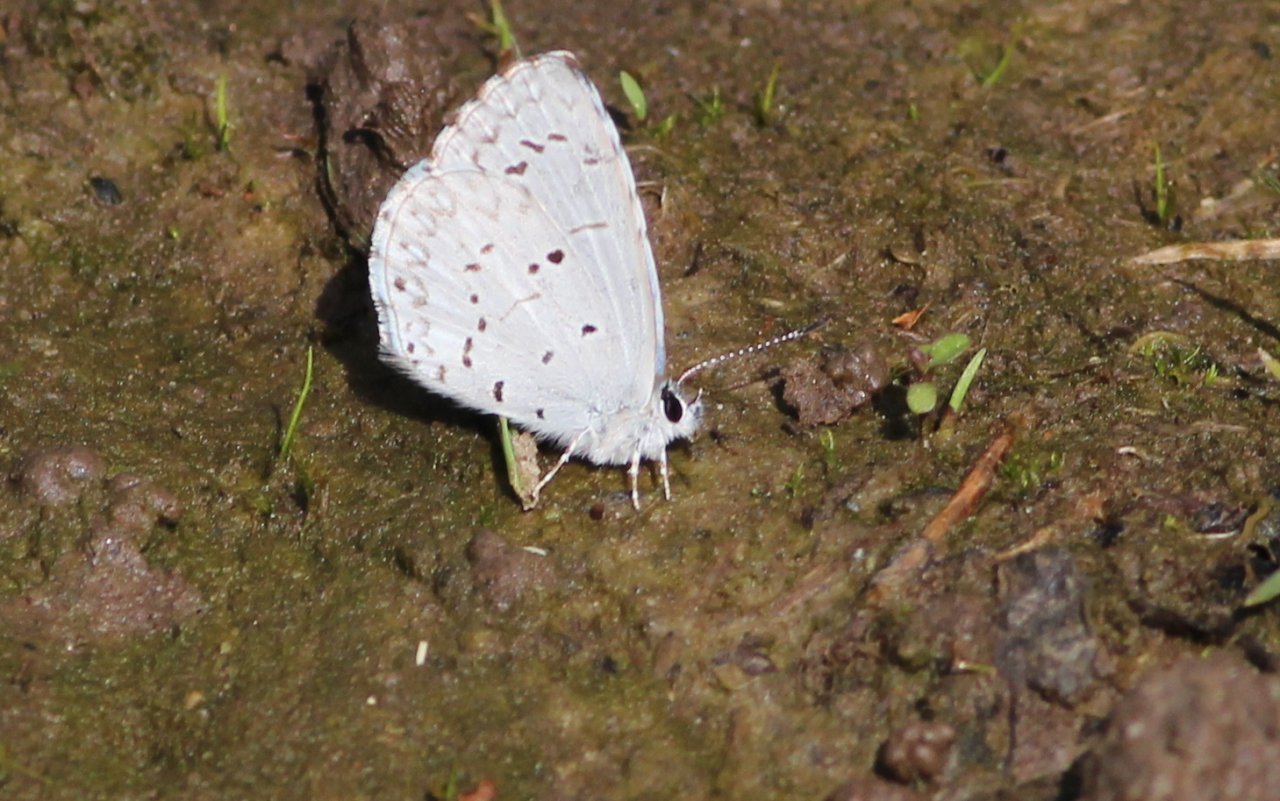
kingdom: Animalia
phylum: Arthropoda
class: Insecta
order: Lepidoptera
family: Lycaenidae
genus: Celastrina
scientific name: Celastrina ladon
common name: Spring Azure
